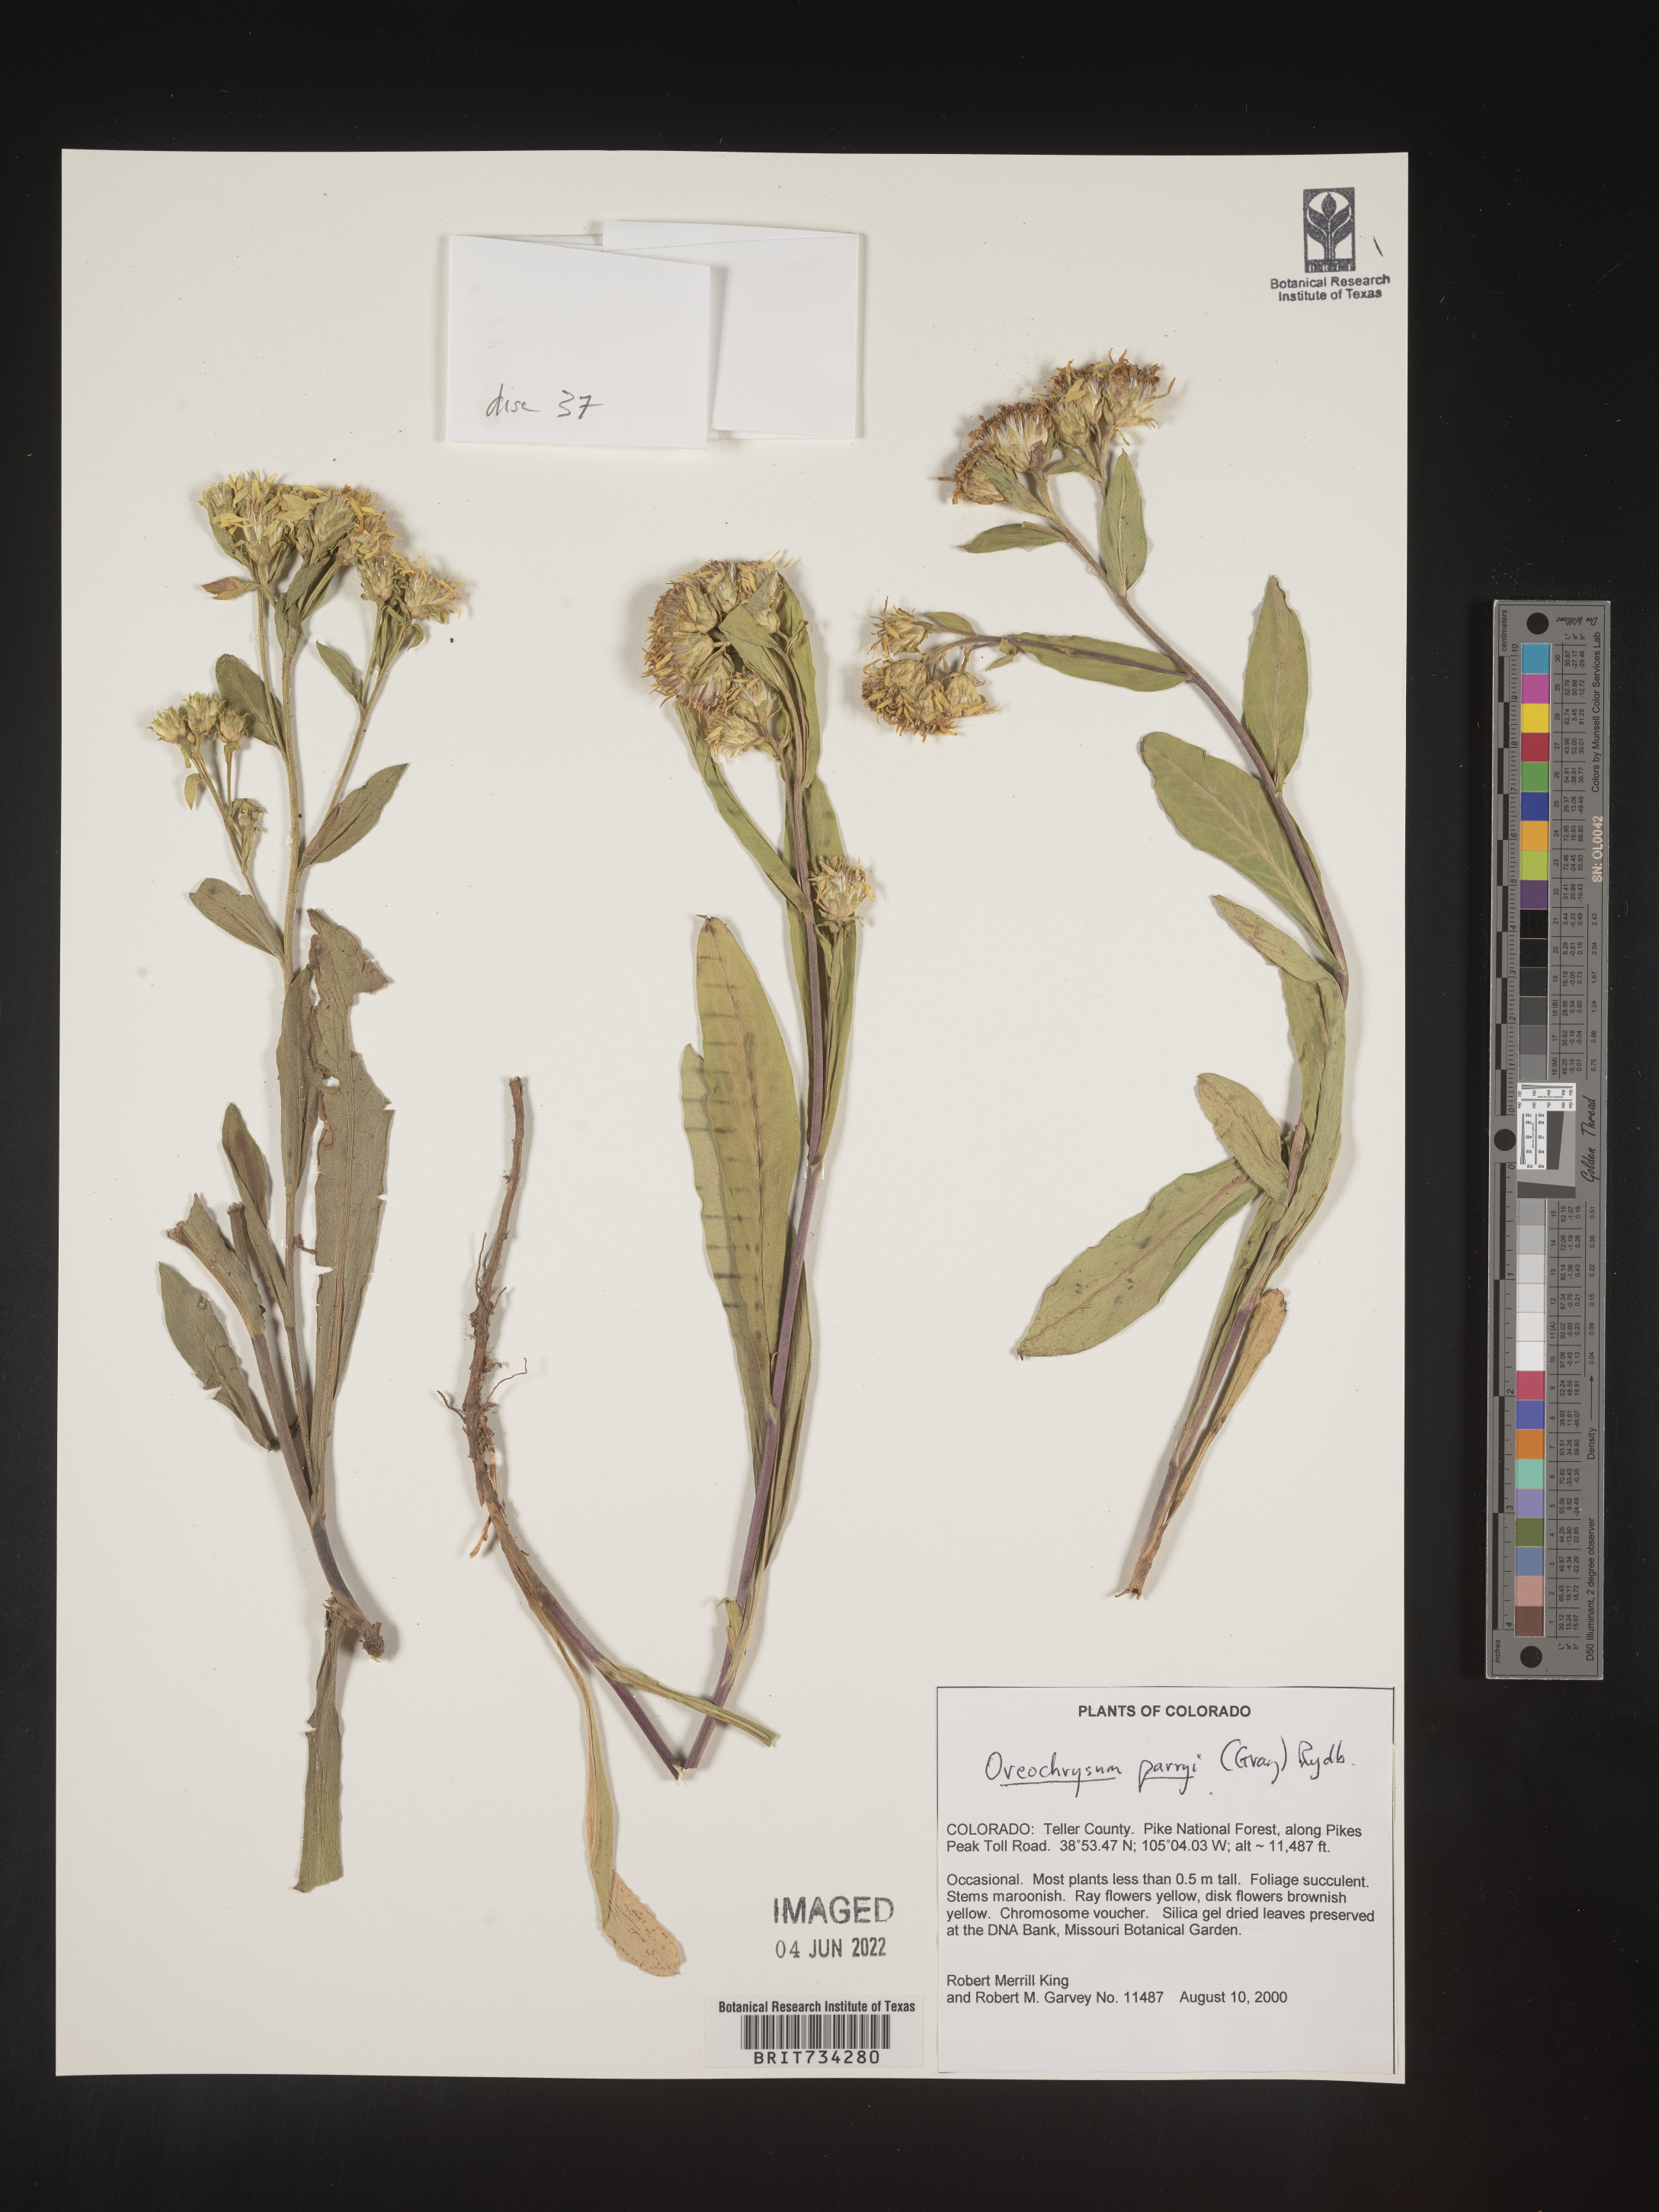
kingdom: Plantae
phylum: Tracheophyta
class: Magnoliopsida
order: Asterales
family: Asteraceae
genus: Oreochrysum
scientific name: Oreochrysum parryi
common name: Parry's goldenweed
